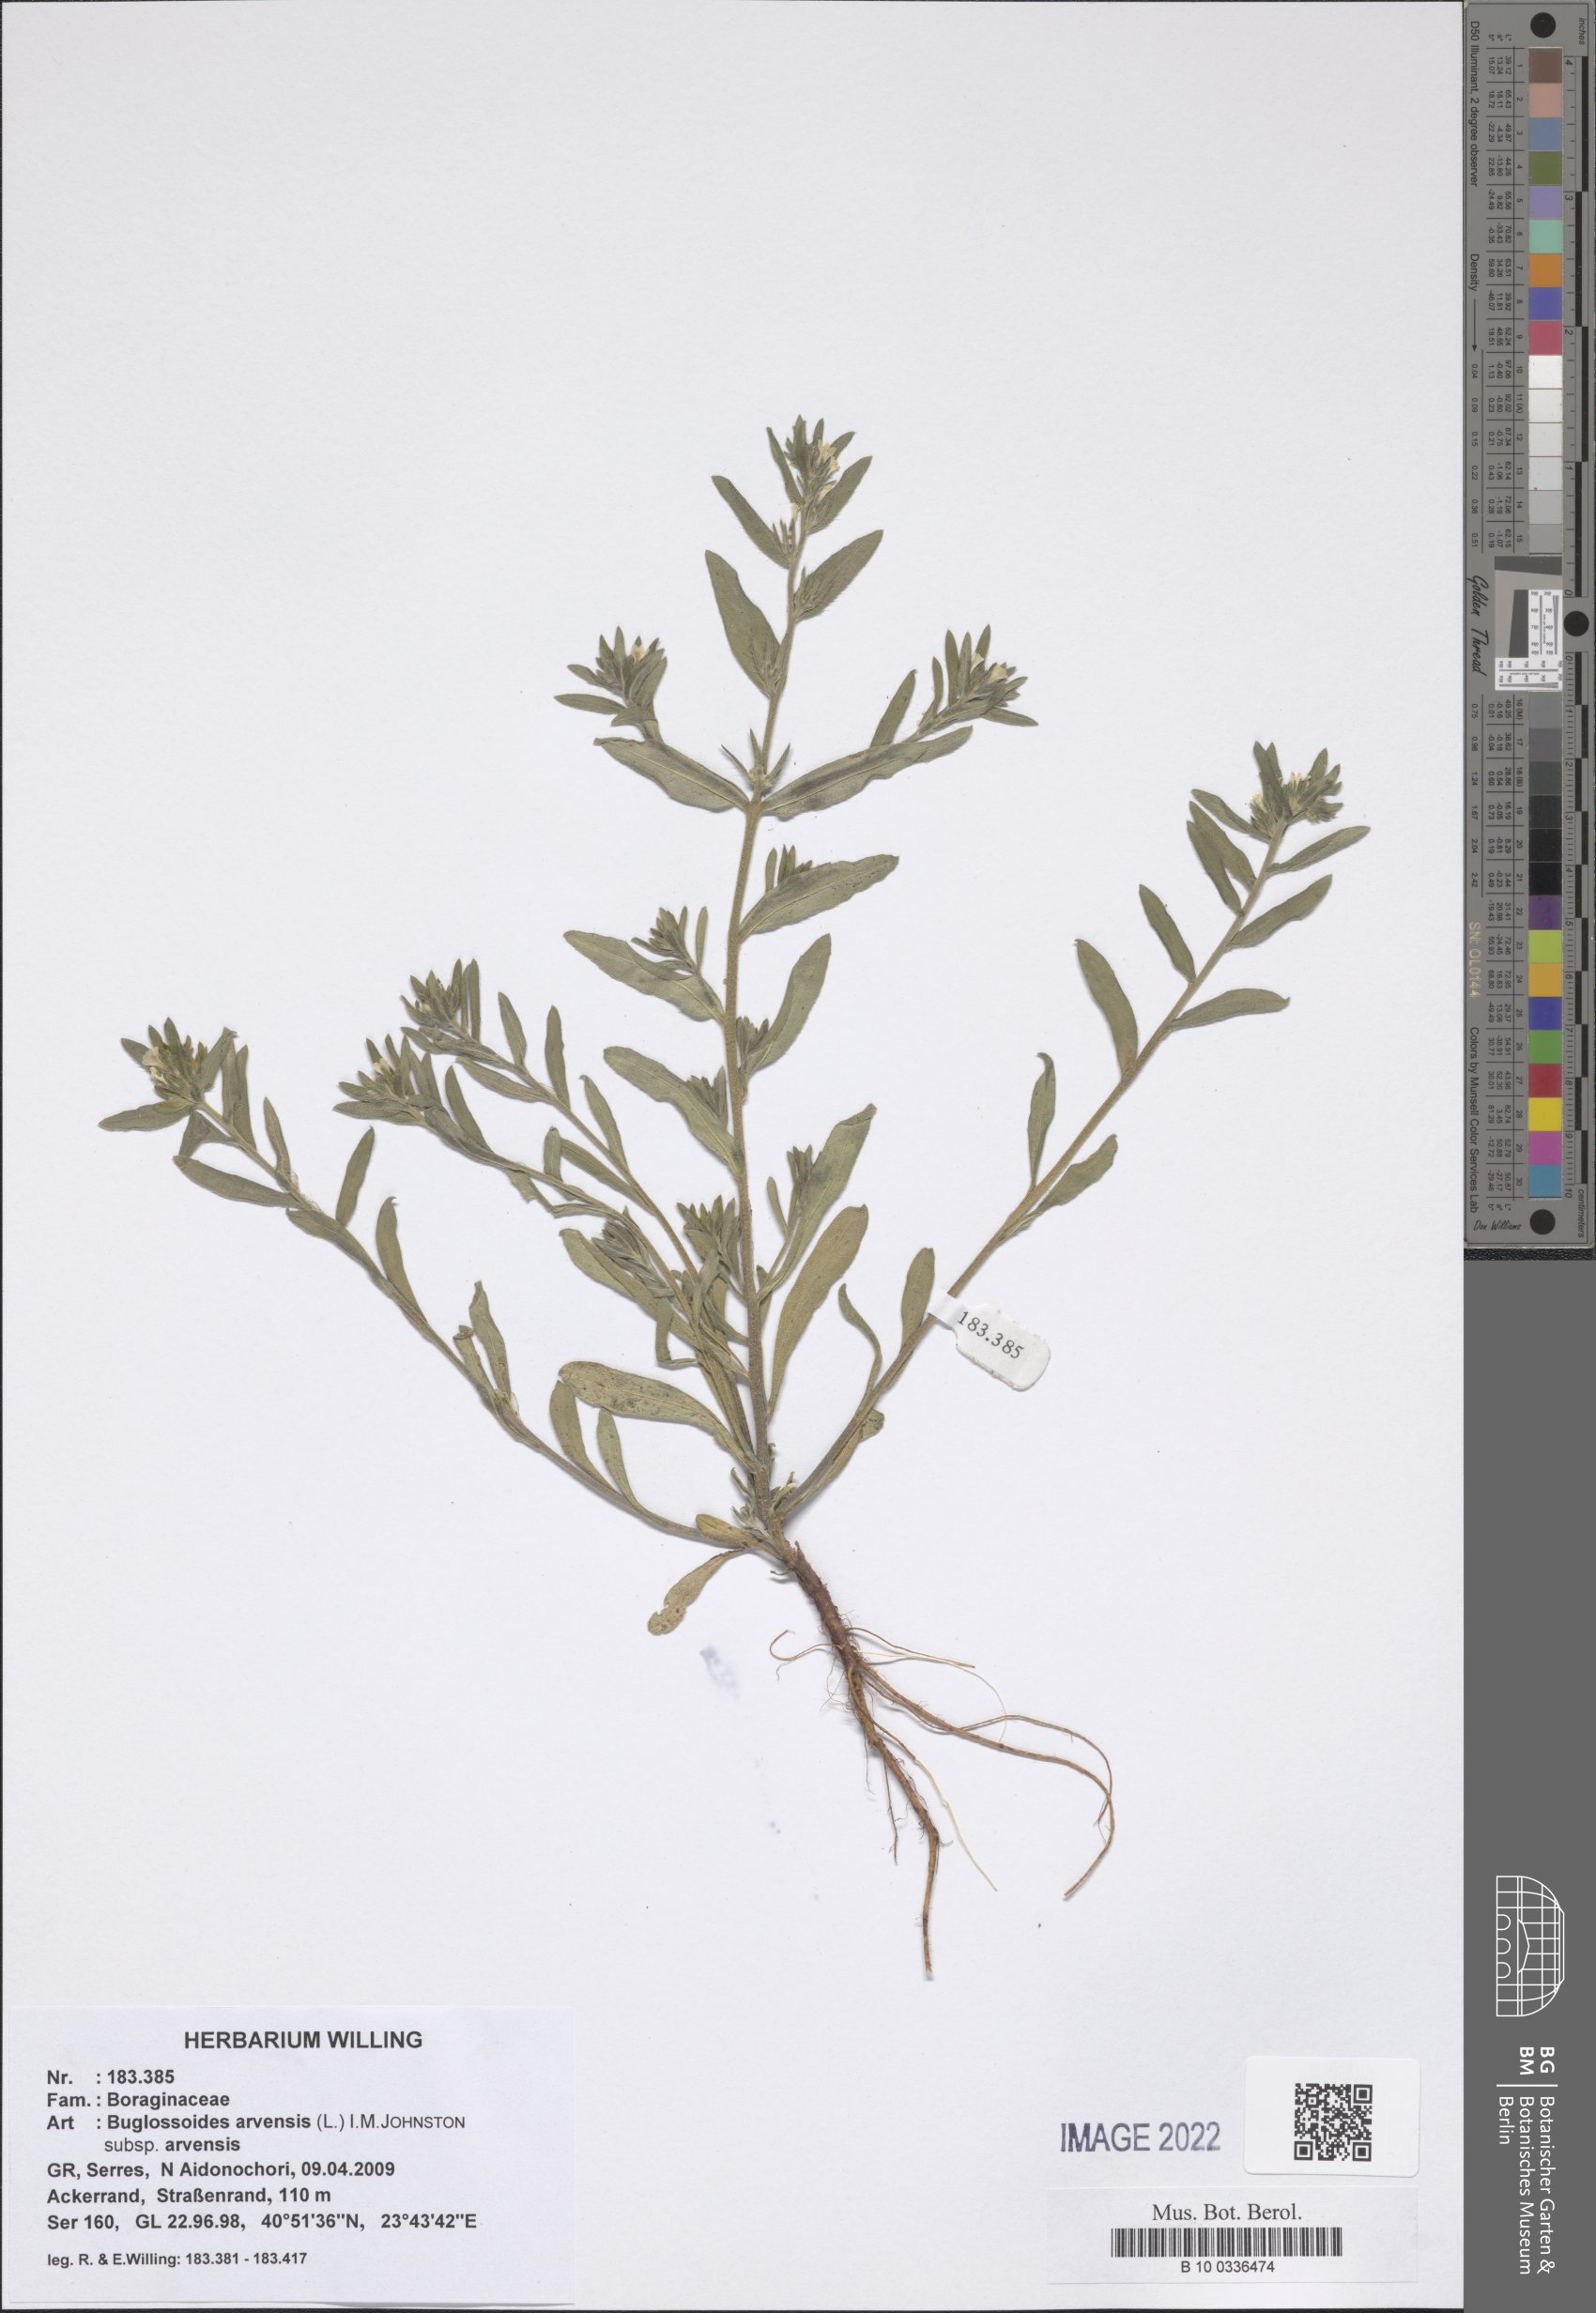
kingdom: Plantae
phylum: Tracheophyta
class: Magnoliopsida
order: Boraginales
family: Boraginaceae
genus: Buglossoides
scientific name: Buglossoides arvensis
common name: Corn gromwell
